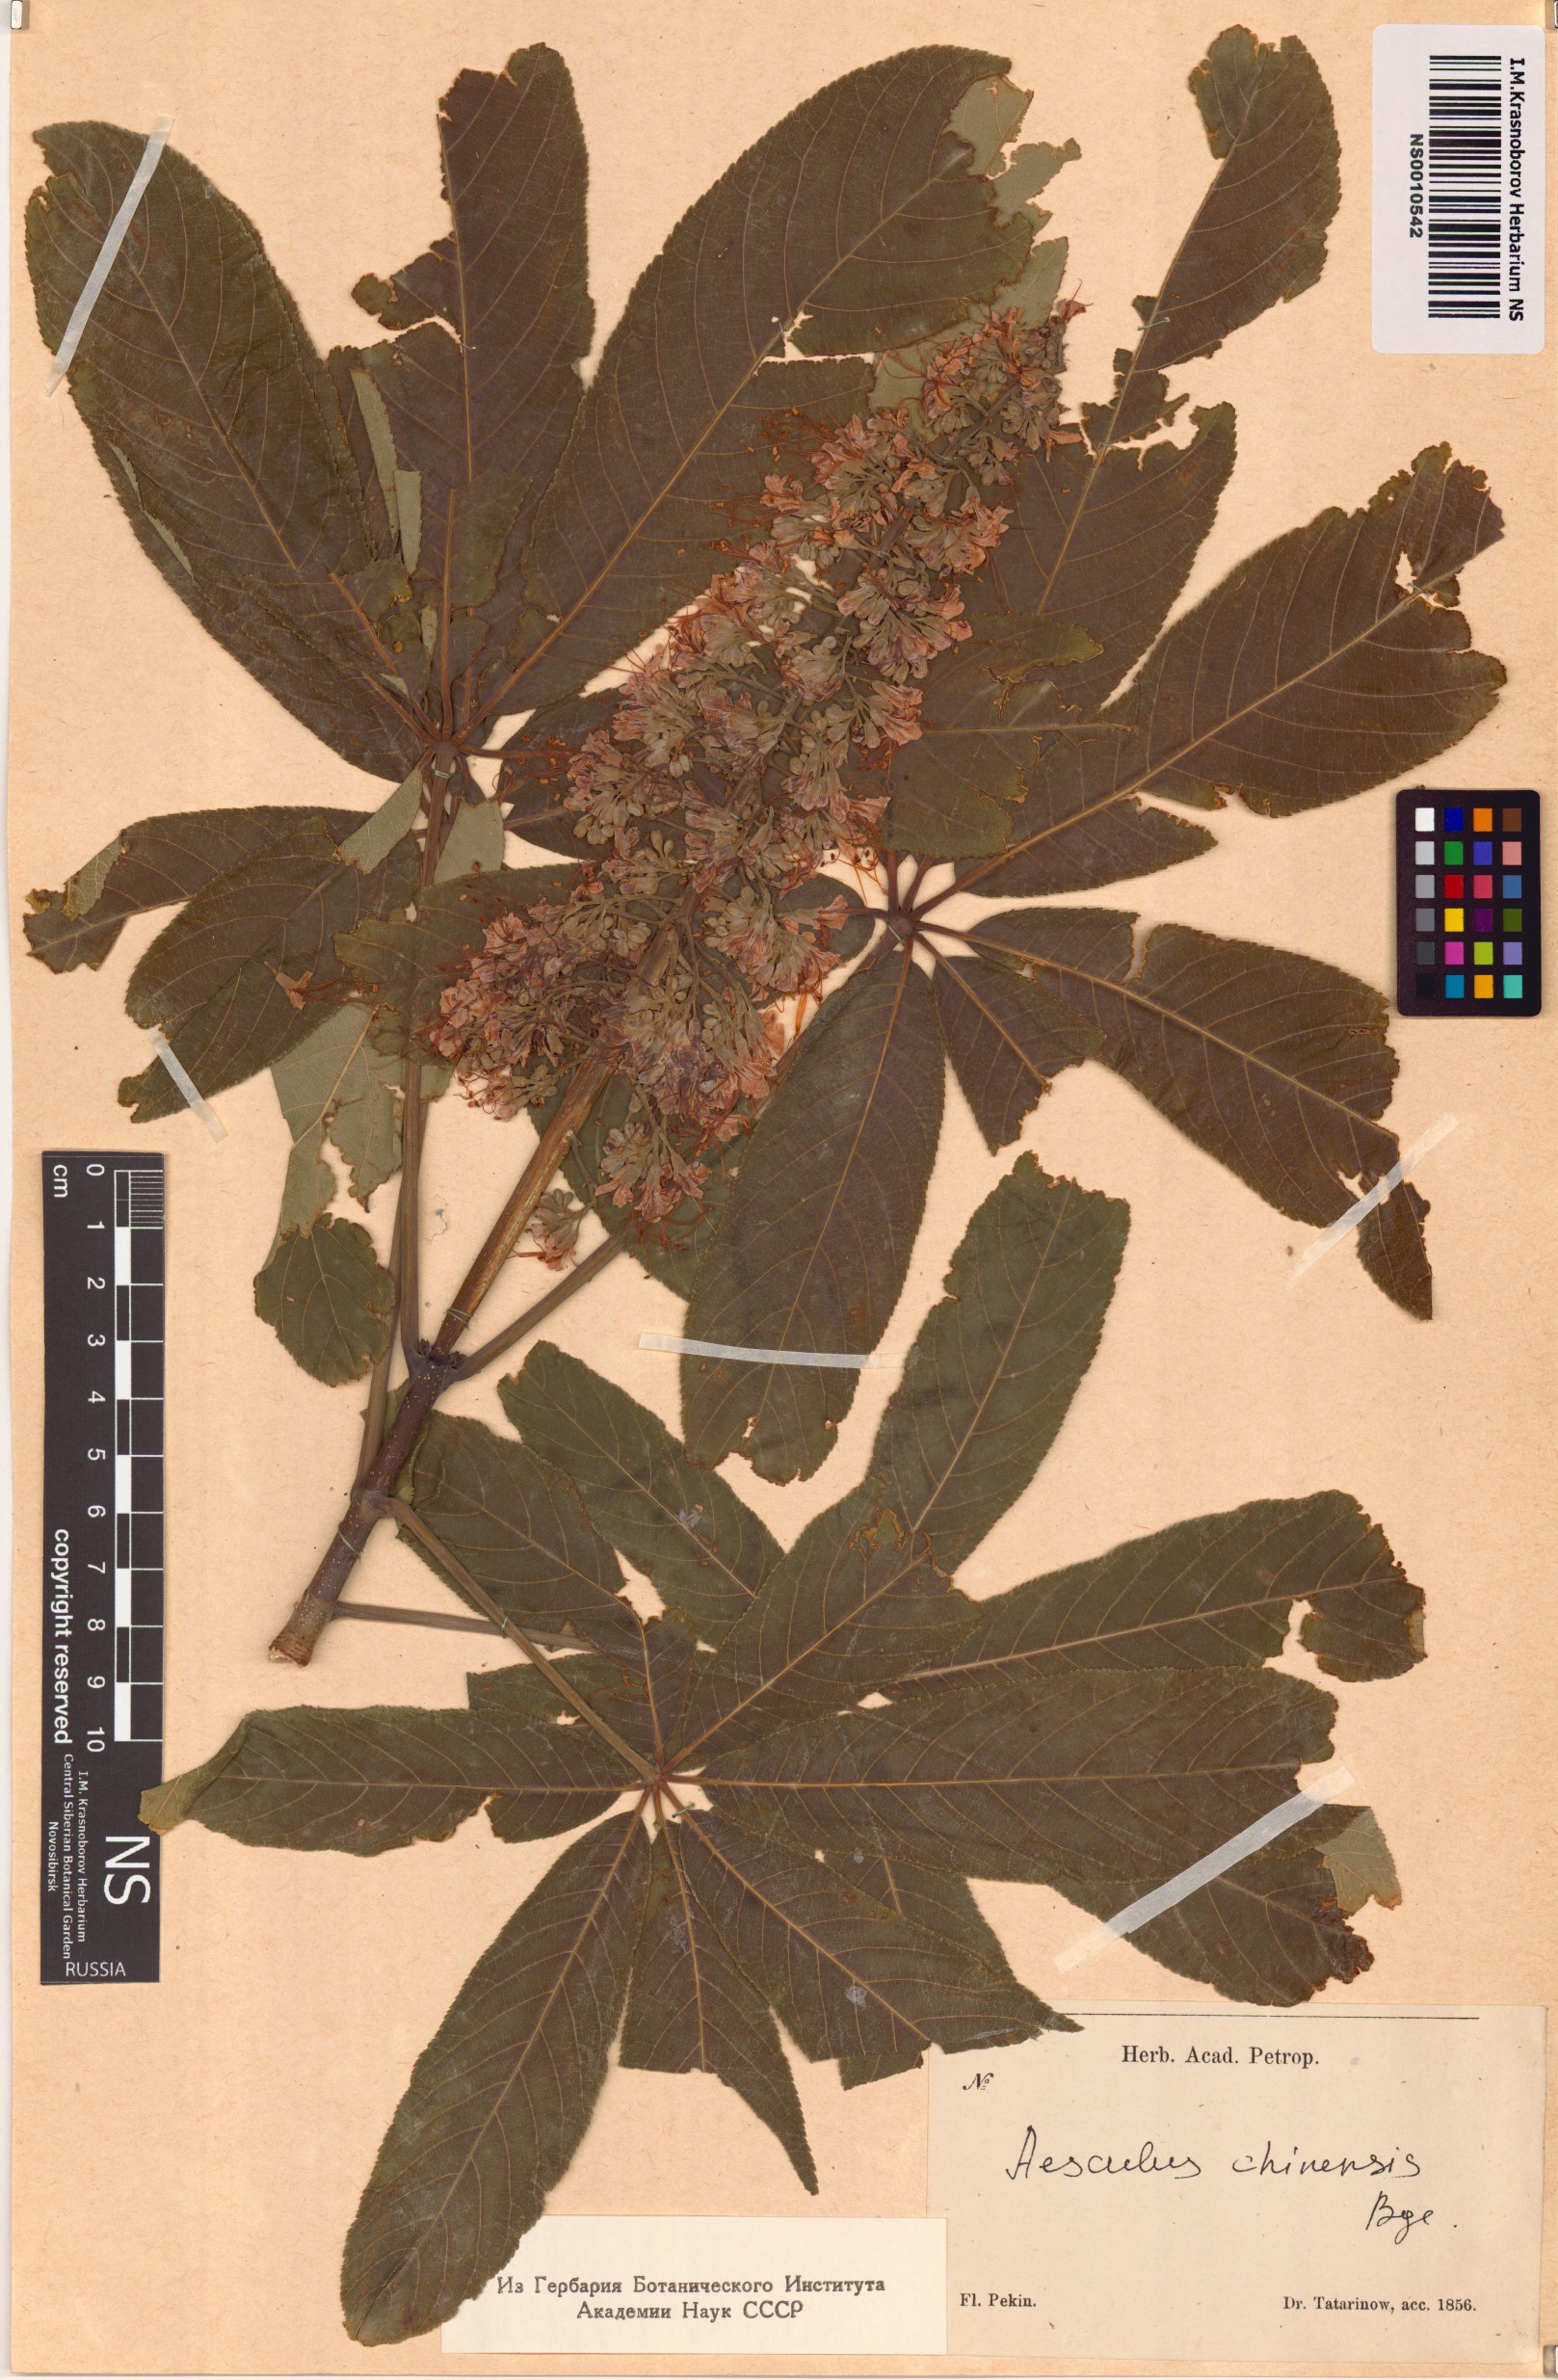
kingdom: Plantae
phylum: Tracheophyta
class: Magnoliopsida
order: Sapindales
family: Sapindaceae
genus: Aesculus
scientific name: Aesculus chinensis
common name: Chinese horse-chestnut
